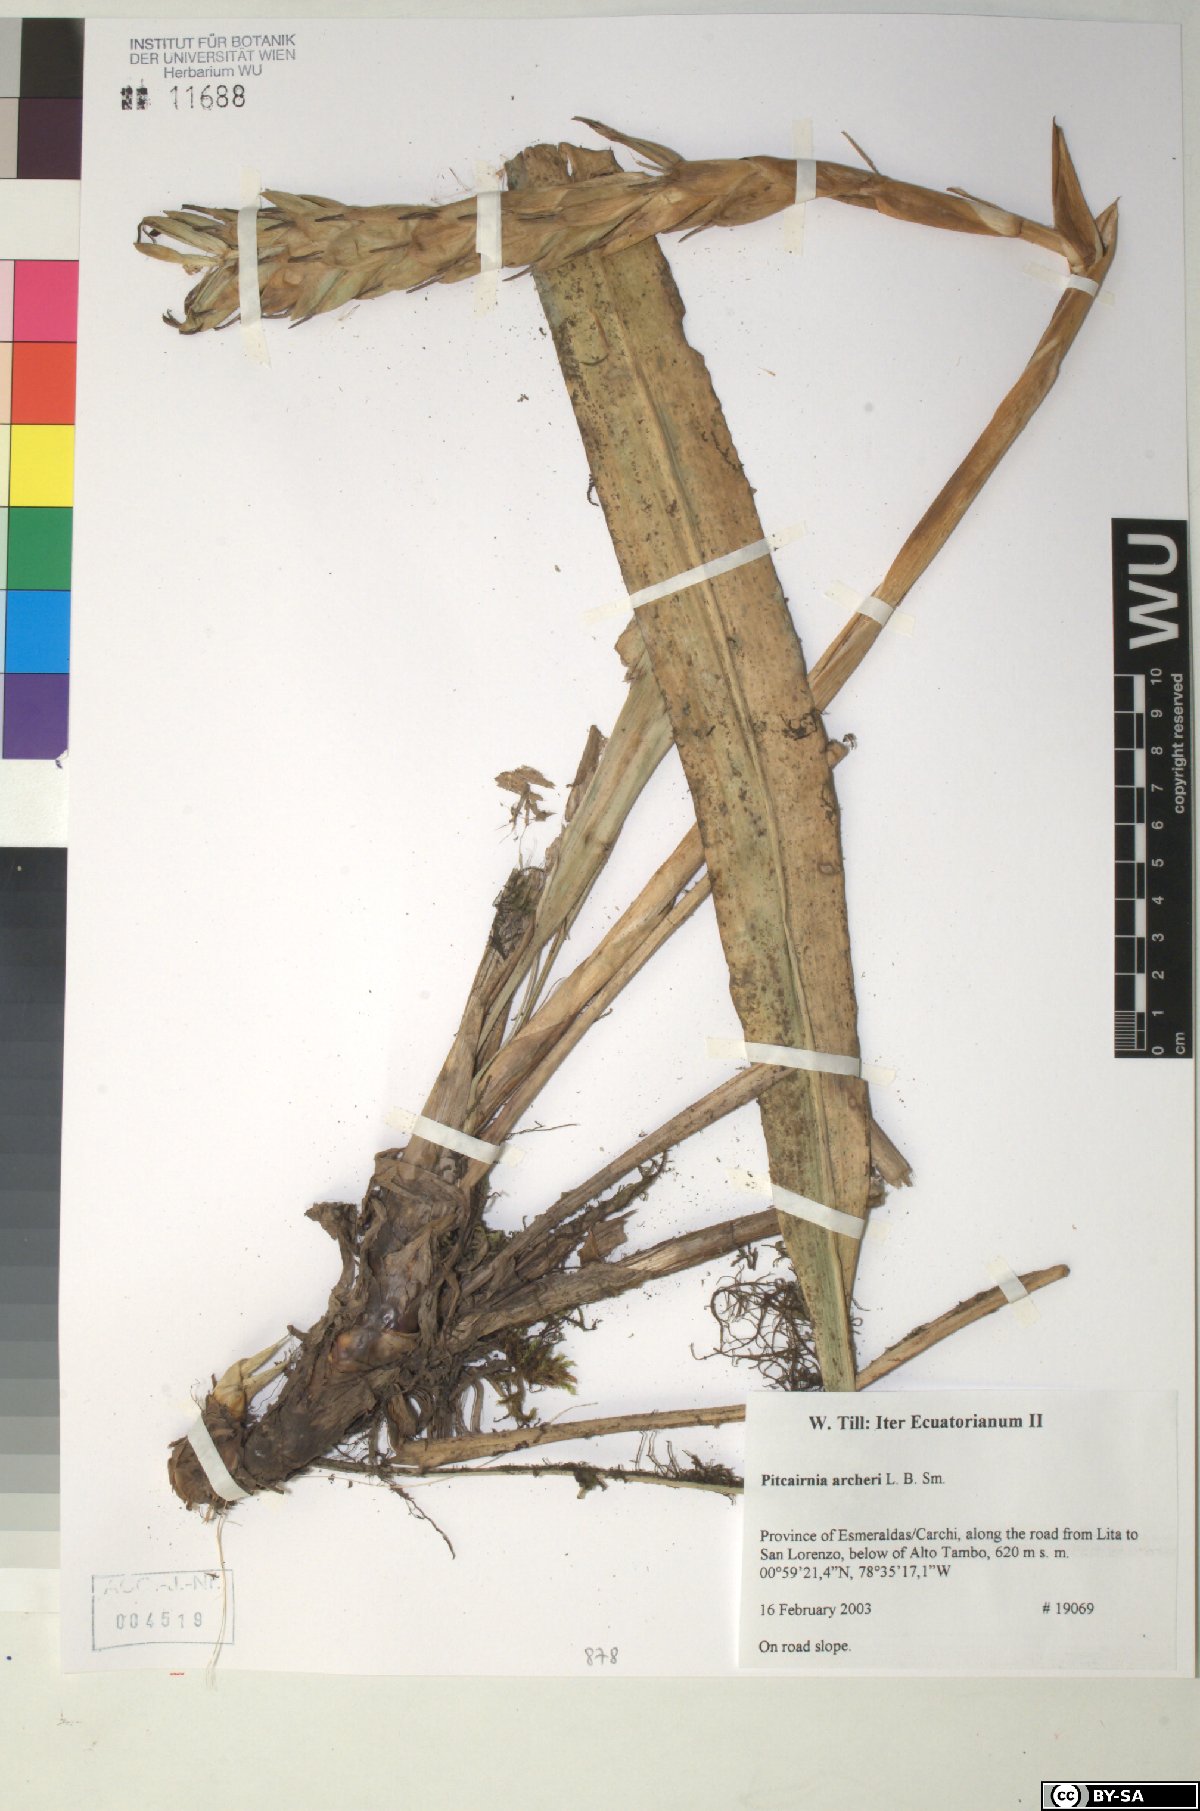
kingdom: Plantae
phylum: Tracheophyta
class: Liliopsida
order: Poales
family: Bromeliaceae
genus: Pitcairnia
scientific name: Pitcairnia archeri
